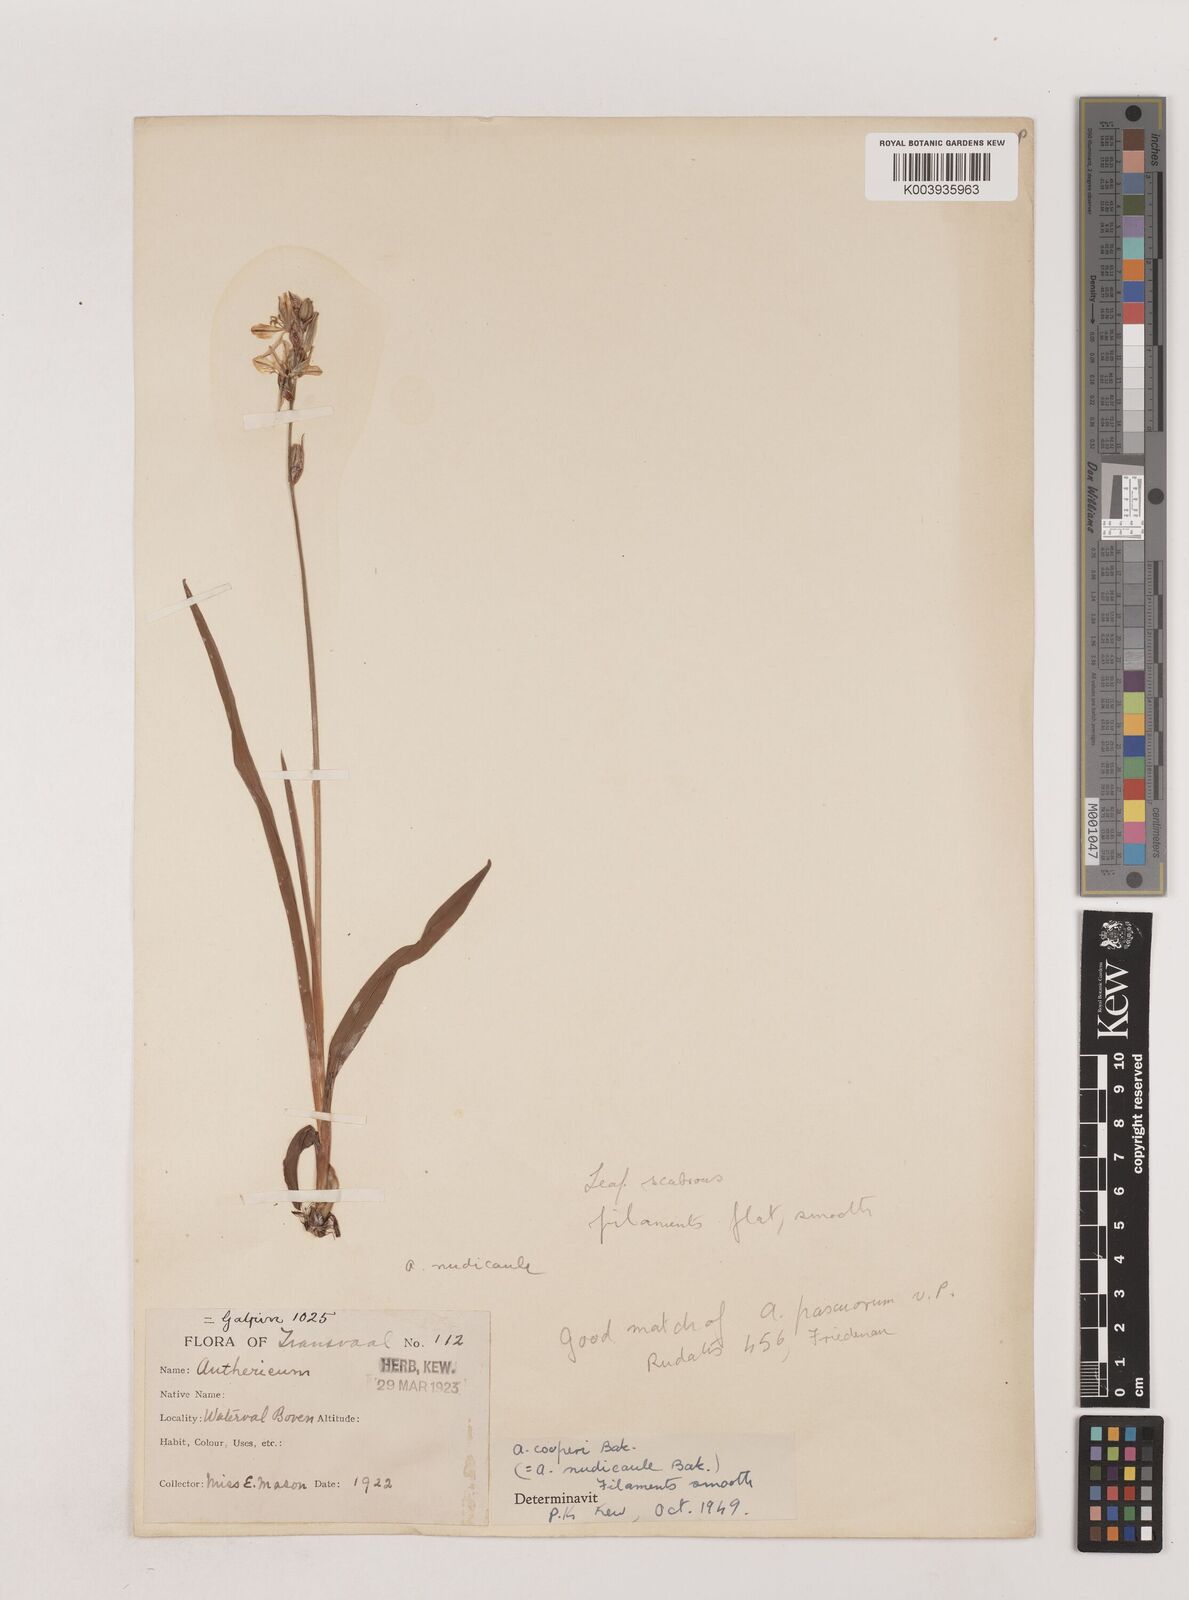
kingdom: Plantae
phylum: Tracheophyta
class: Liliopsida
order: Asparagales
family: Asparagaceae
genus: Chlorophytum
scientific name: Chlorophytum cooperi
